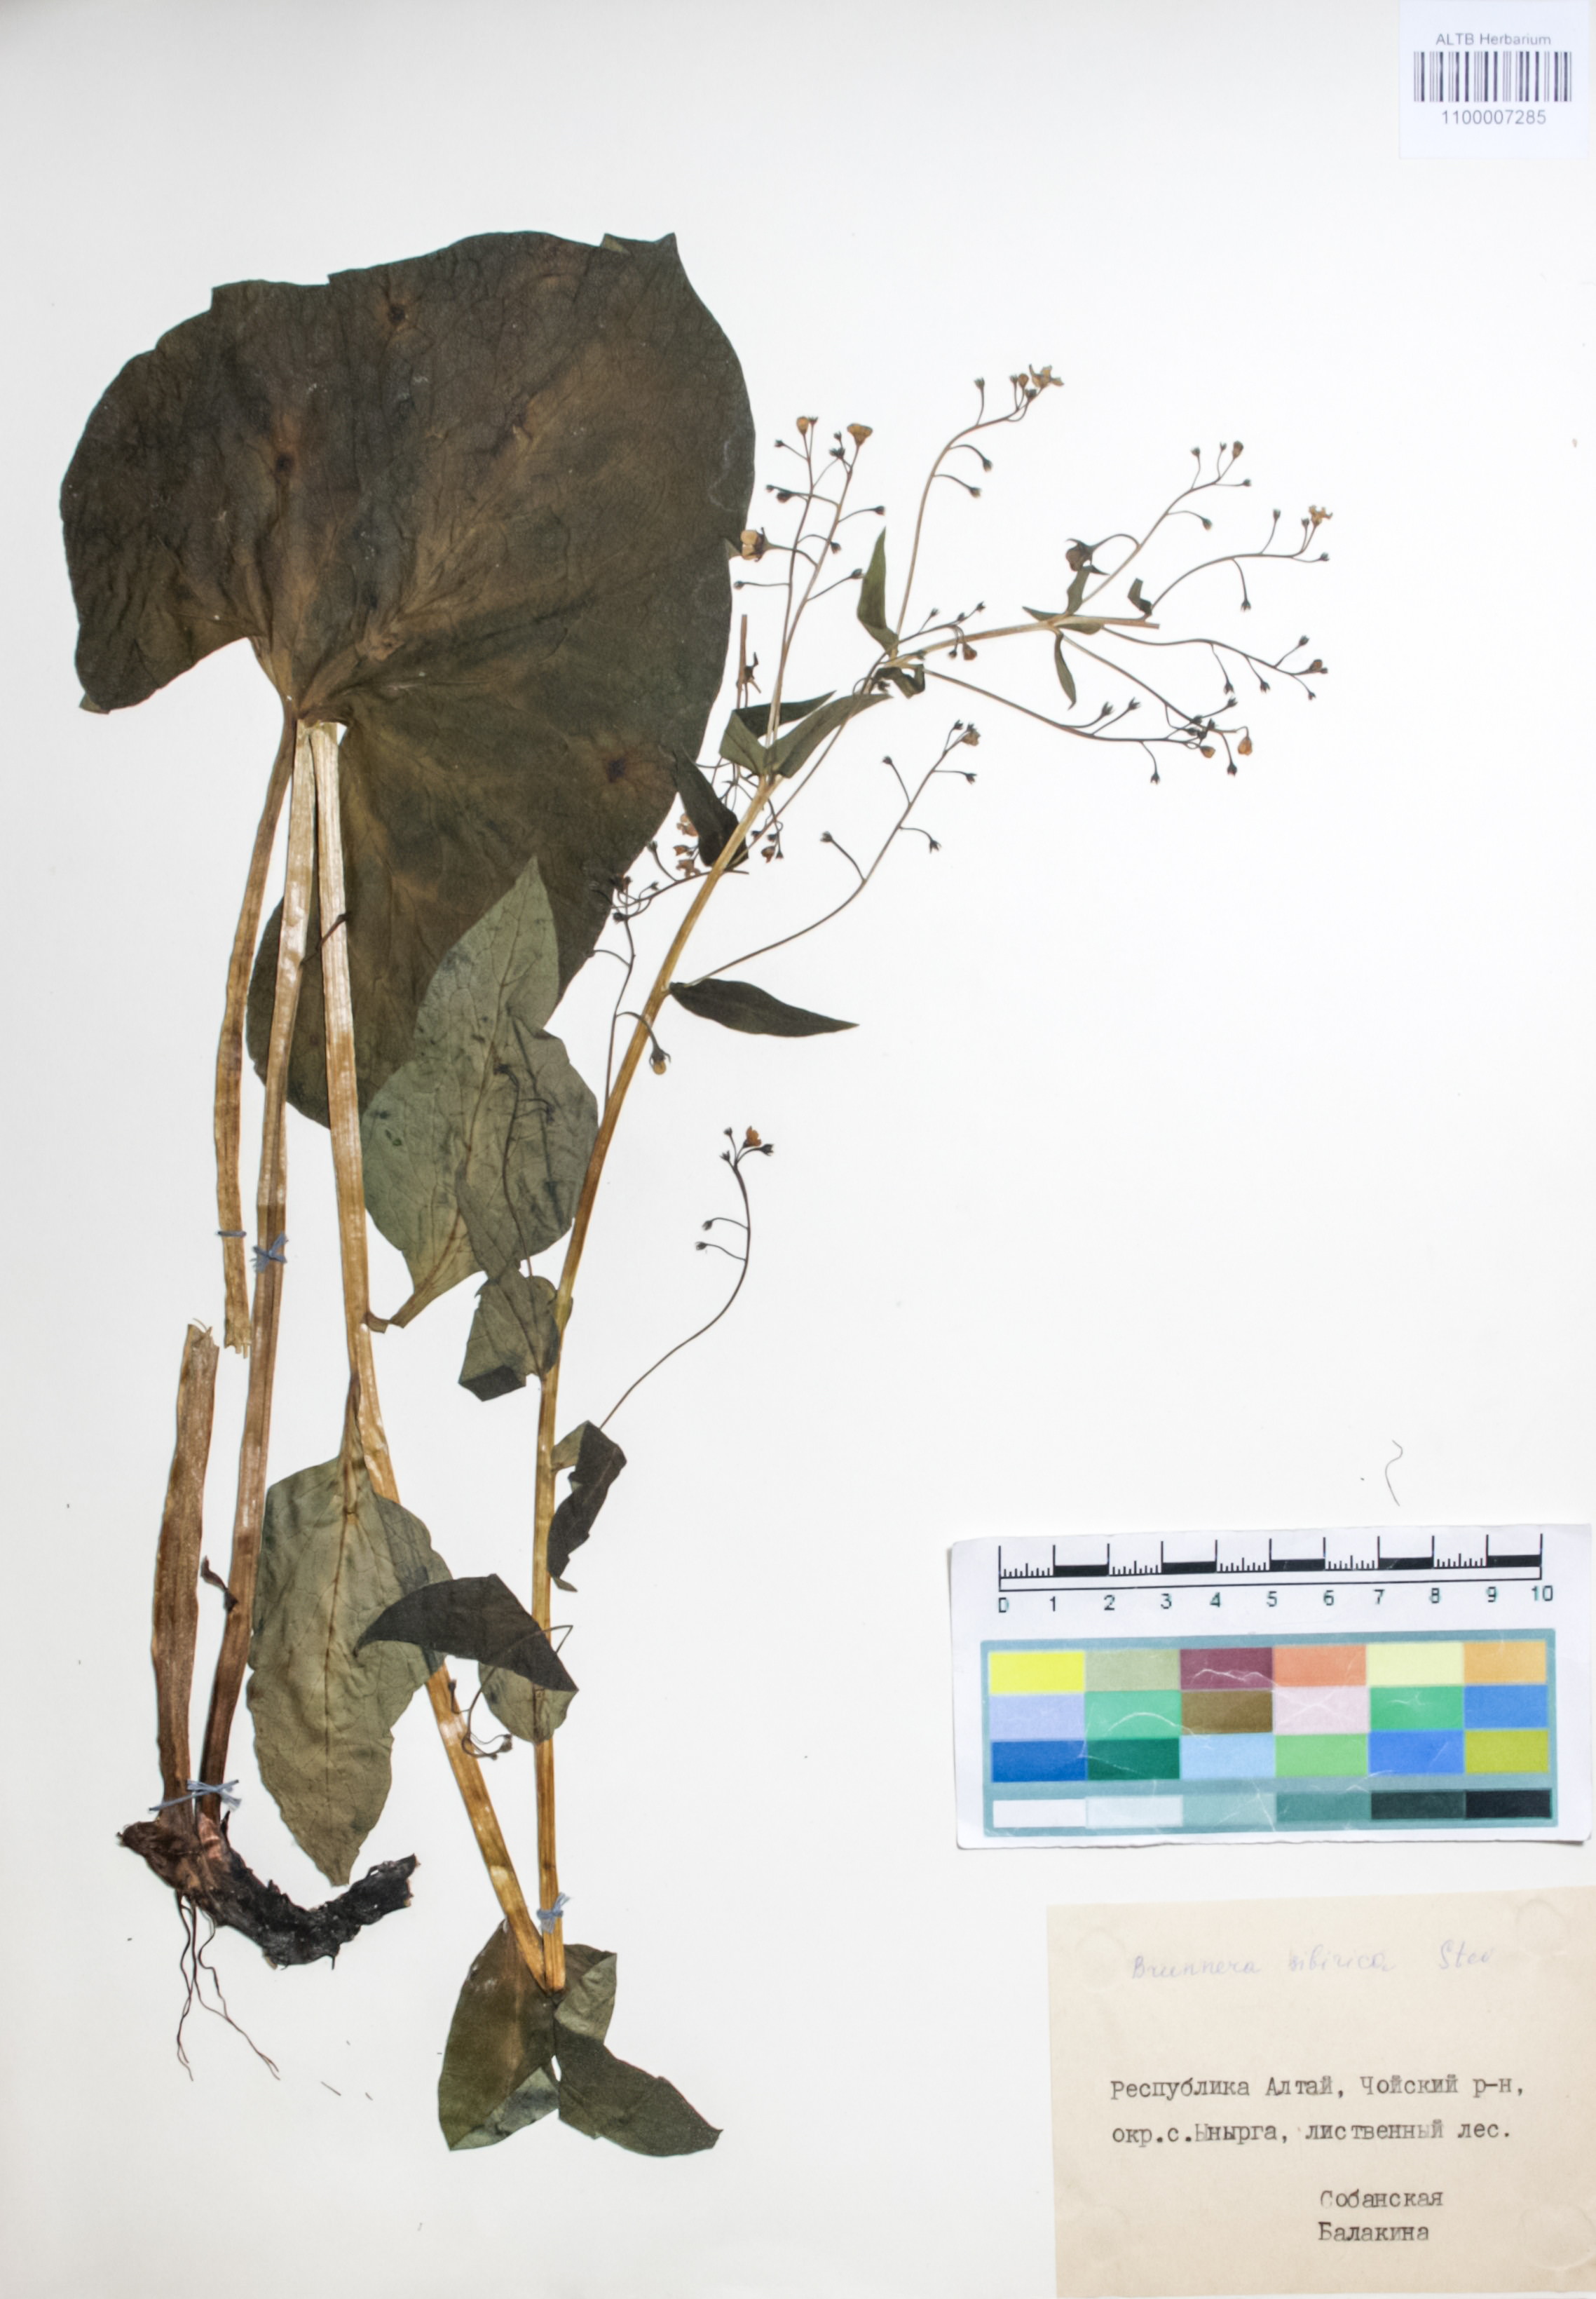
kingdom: Plantae
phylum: Tracheophyta
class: Magnoliopsida
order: Boraginales
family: Boraginaceae
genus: Brunnera
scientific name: Brunnera sibirica
